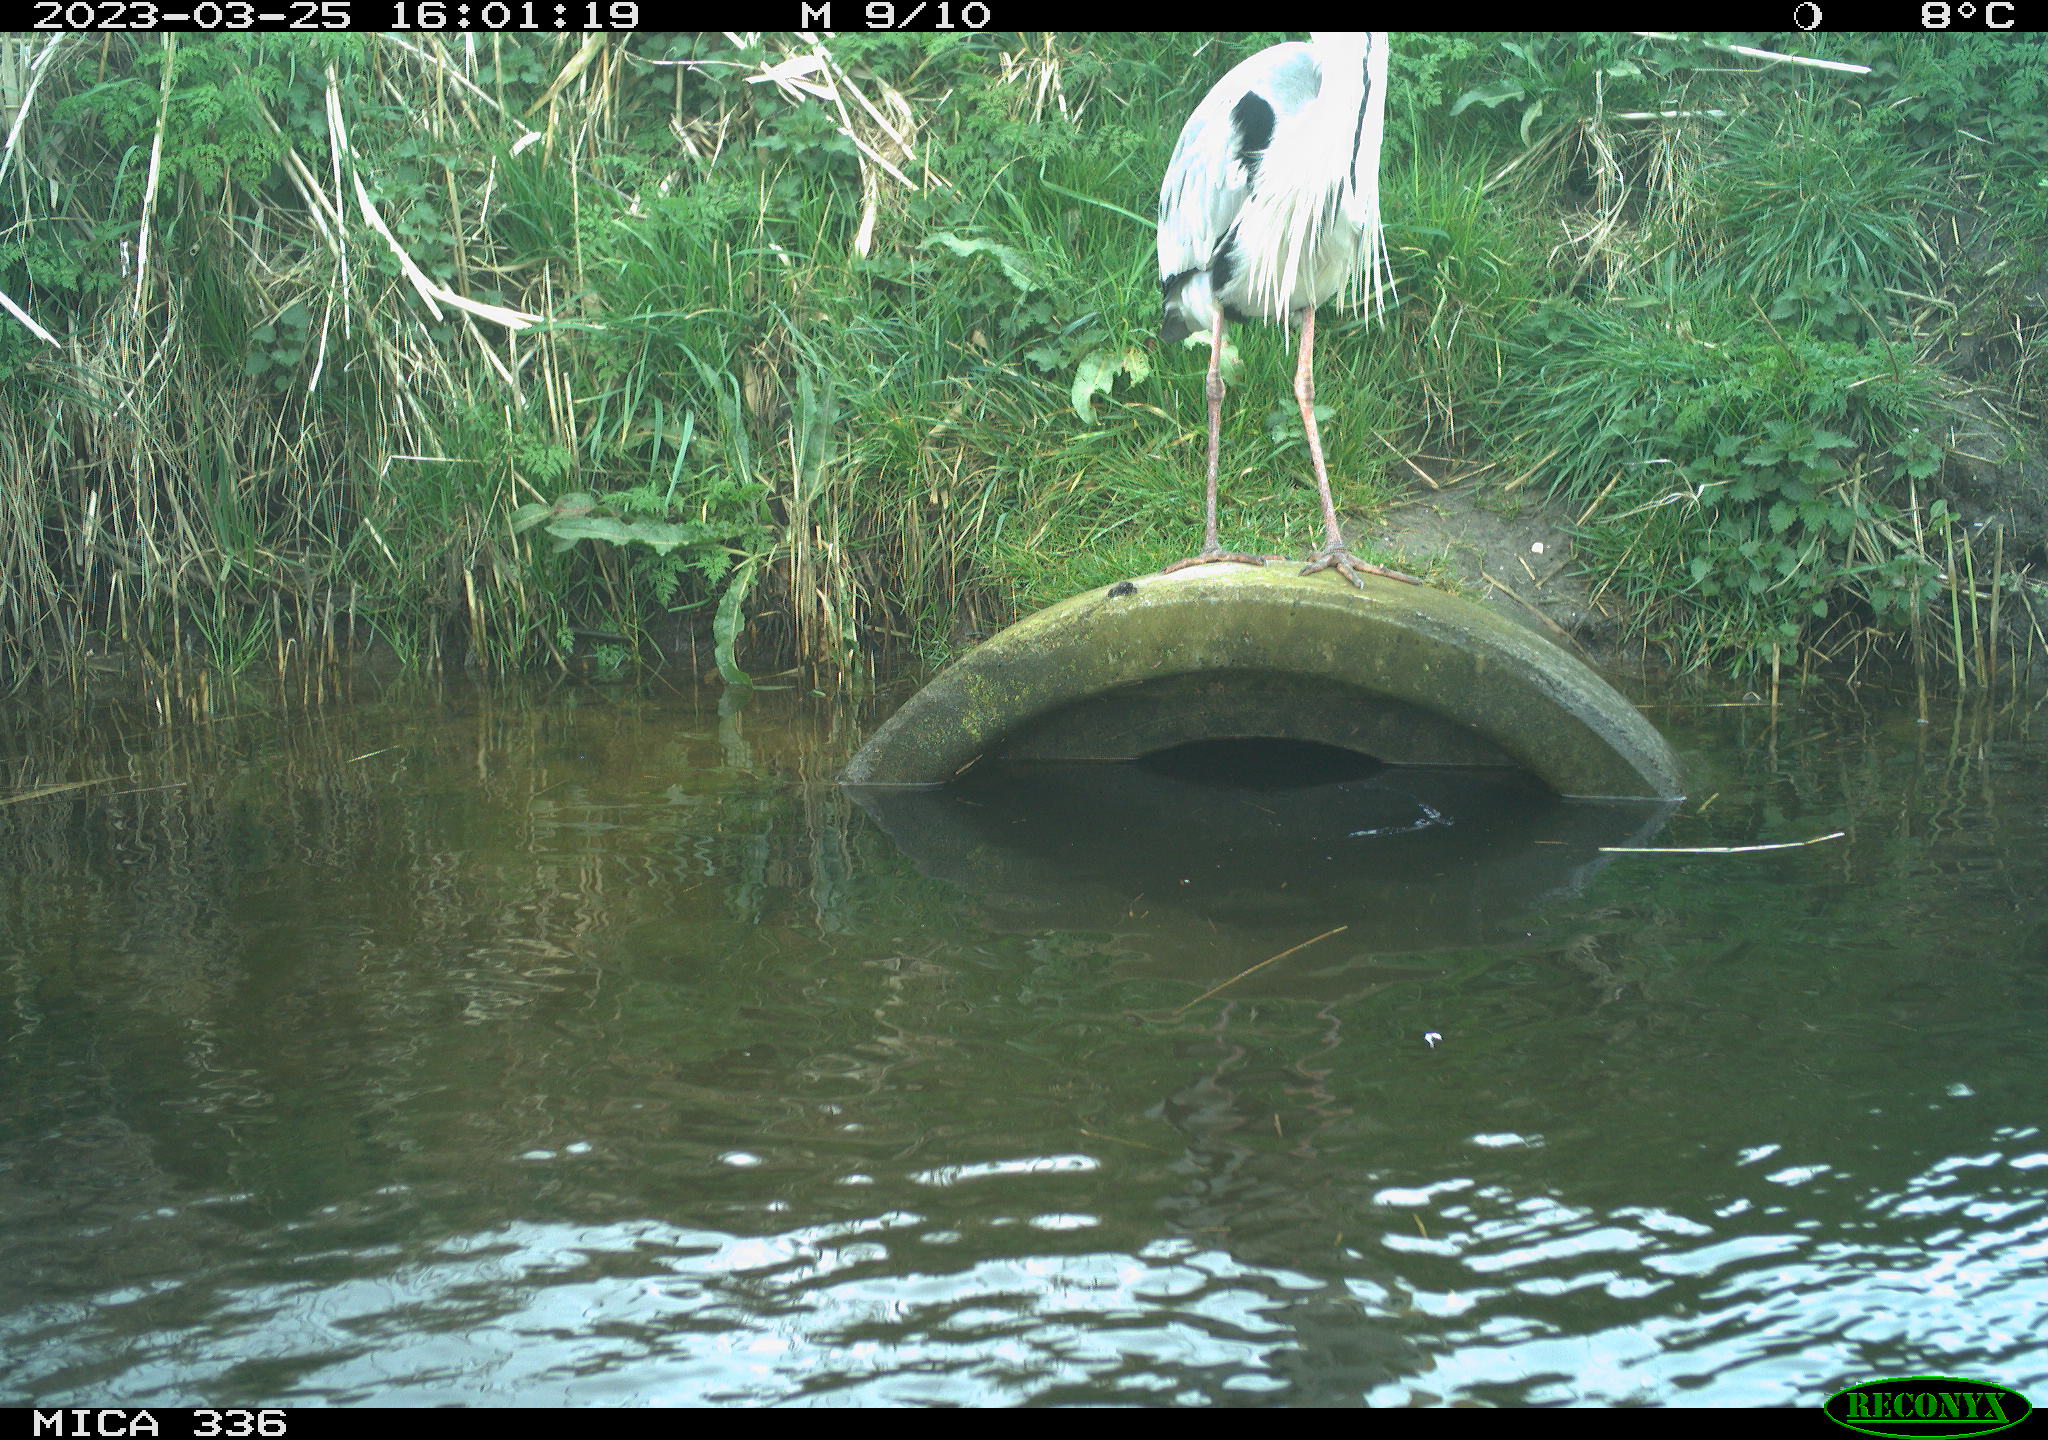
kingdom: Animalia
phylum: Chordata
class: Aves
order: Pelecaniformes
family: Ardeidae
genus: Ardea
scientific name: Ardea
